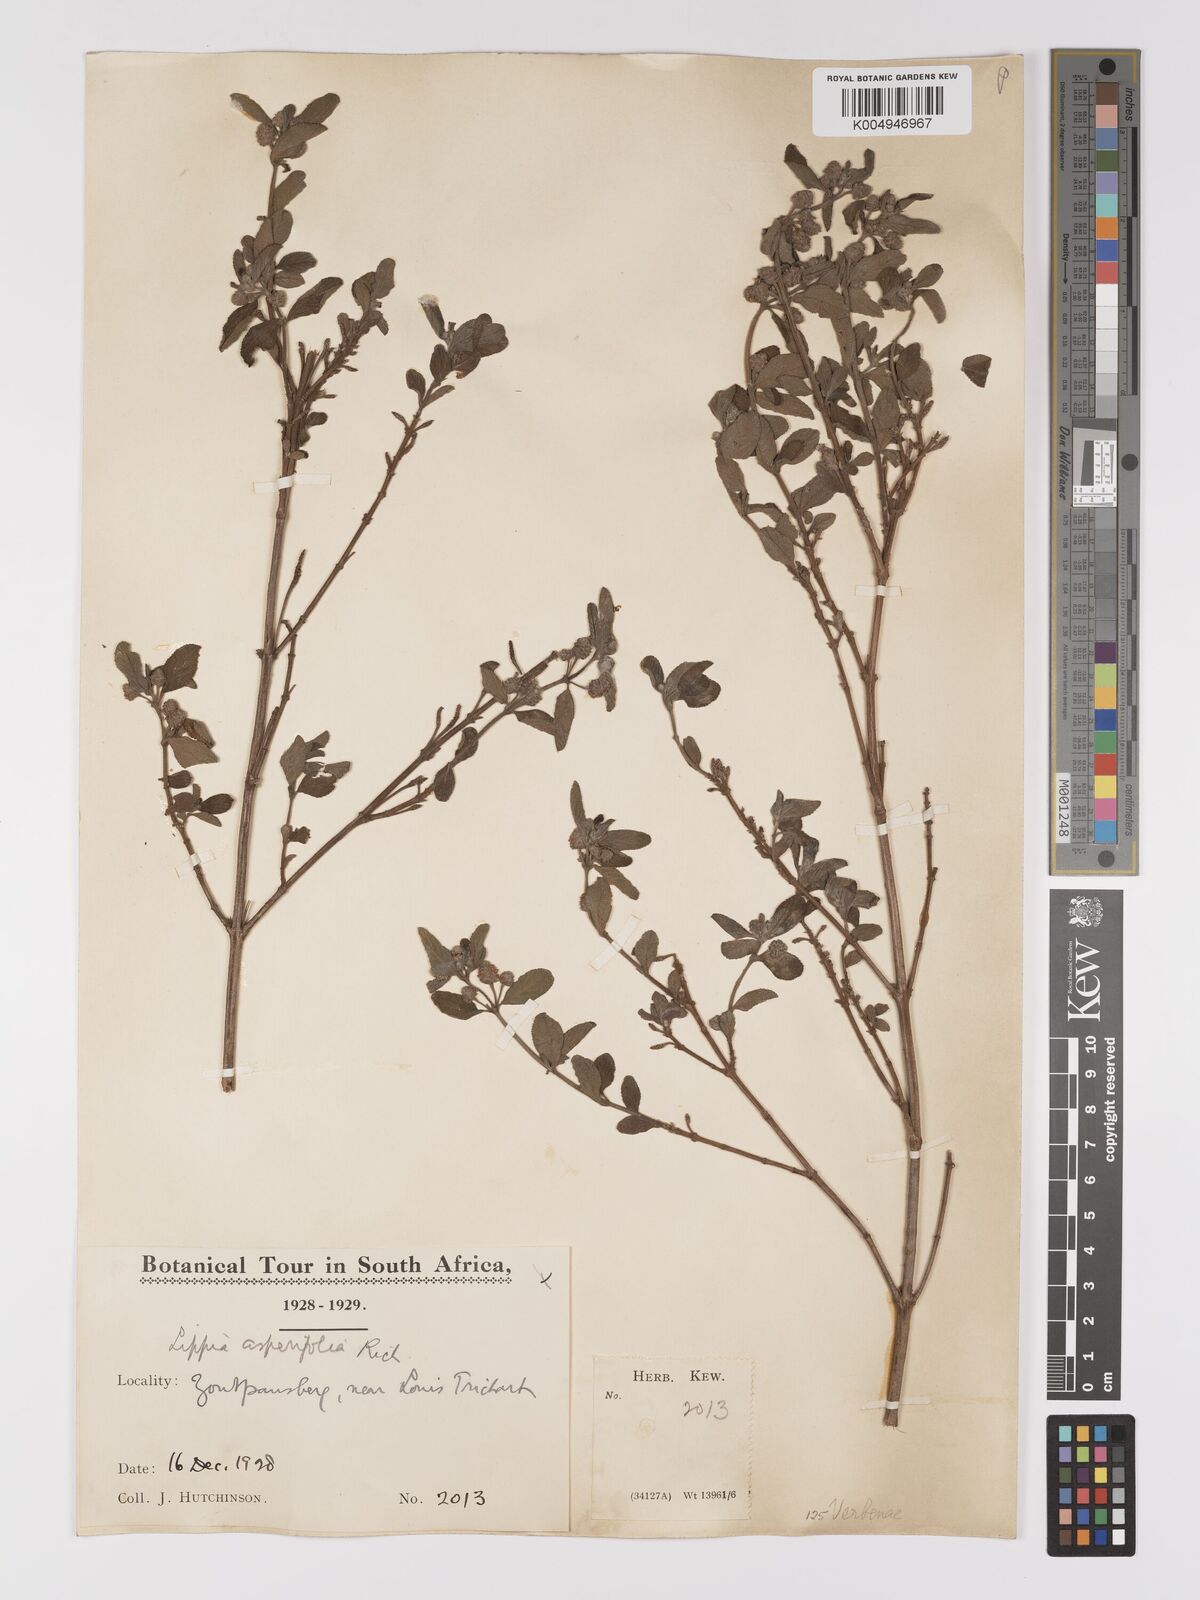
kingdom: Plantae
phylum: Tracheophyta
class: Magnoliopsida
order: Lamiales
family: Verbenaceae
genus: Lippia
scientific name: Lippia javanica
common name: Lemonbush
